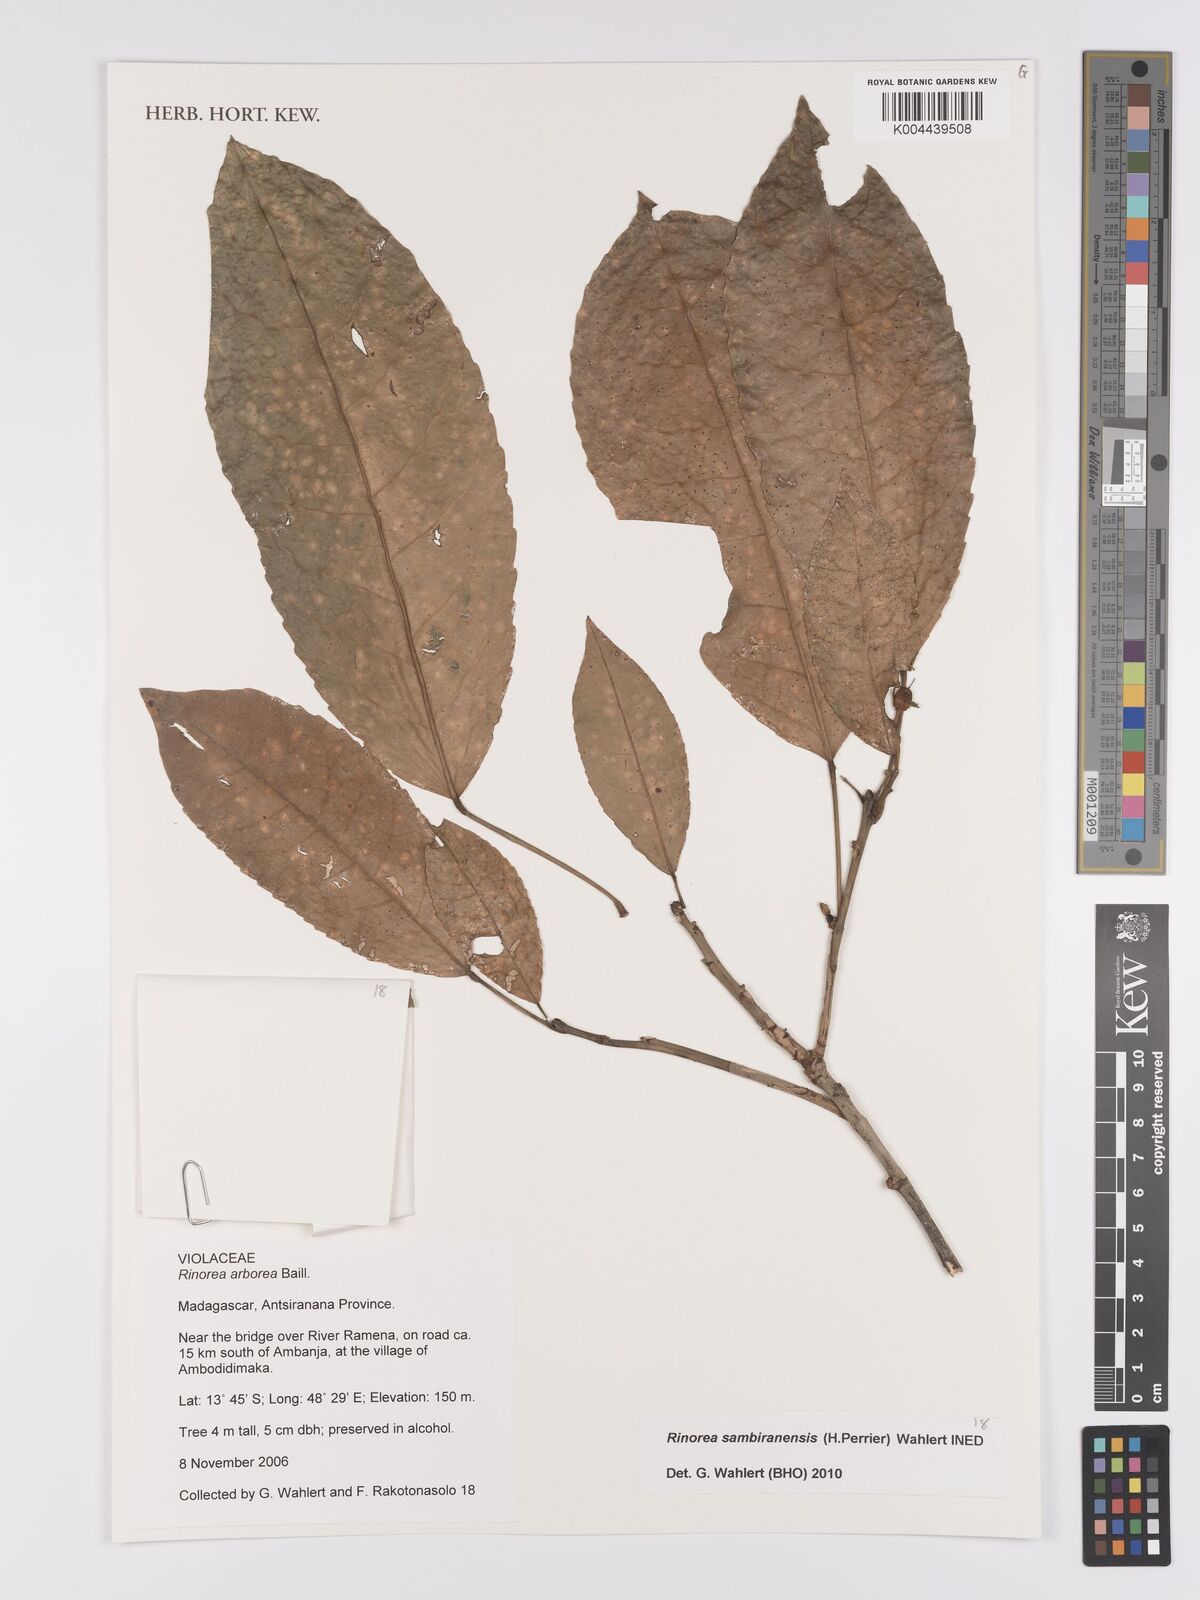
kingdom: Plantae
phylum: Tracheophyta
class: Magnoliopsida
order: Malpighiales
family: Violaceae
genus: Rinorea
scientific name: Rinorea
